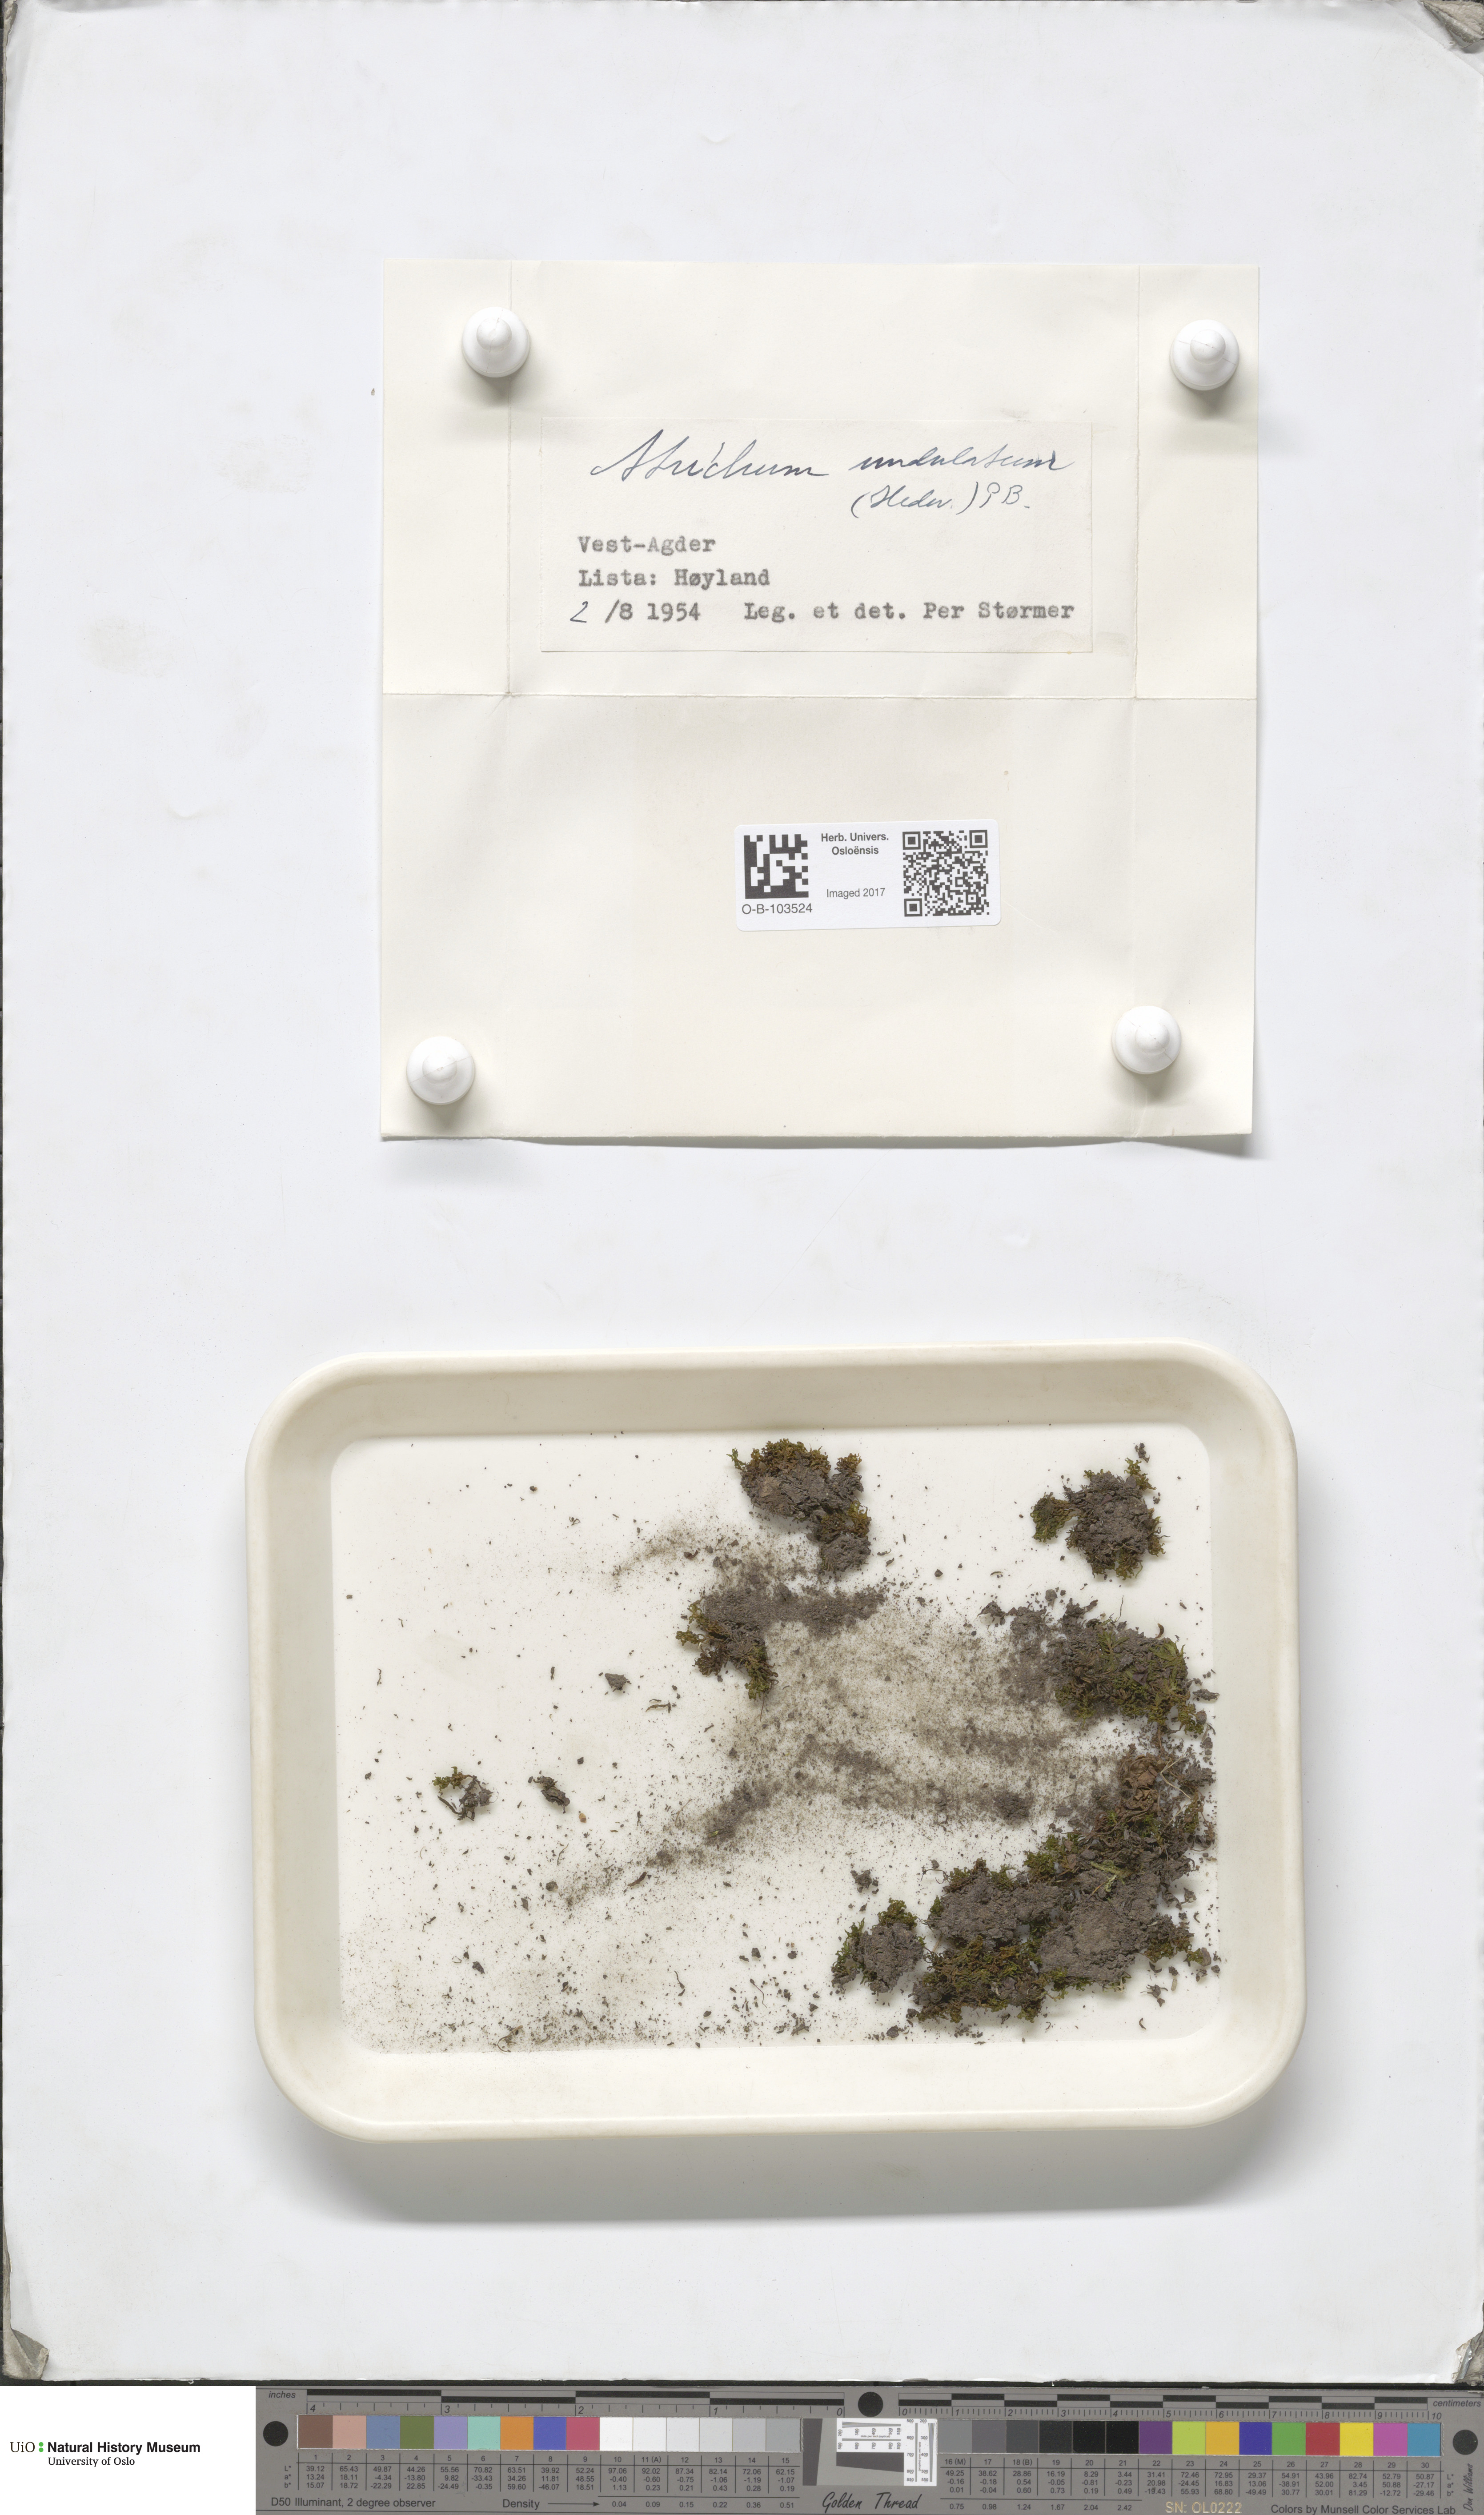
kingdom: Plantae
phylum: Bryophyta
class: Polytrichopsida
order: Polytrichales
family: Polytrichaceae
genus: Atrichum
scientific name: Atrichum undulatum
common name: Common smoothcap
